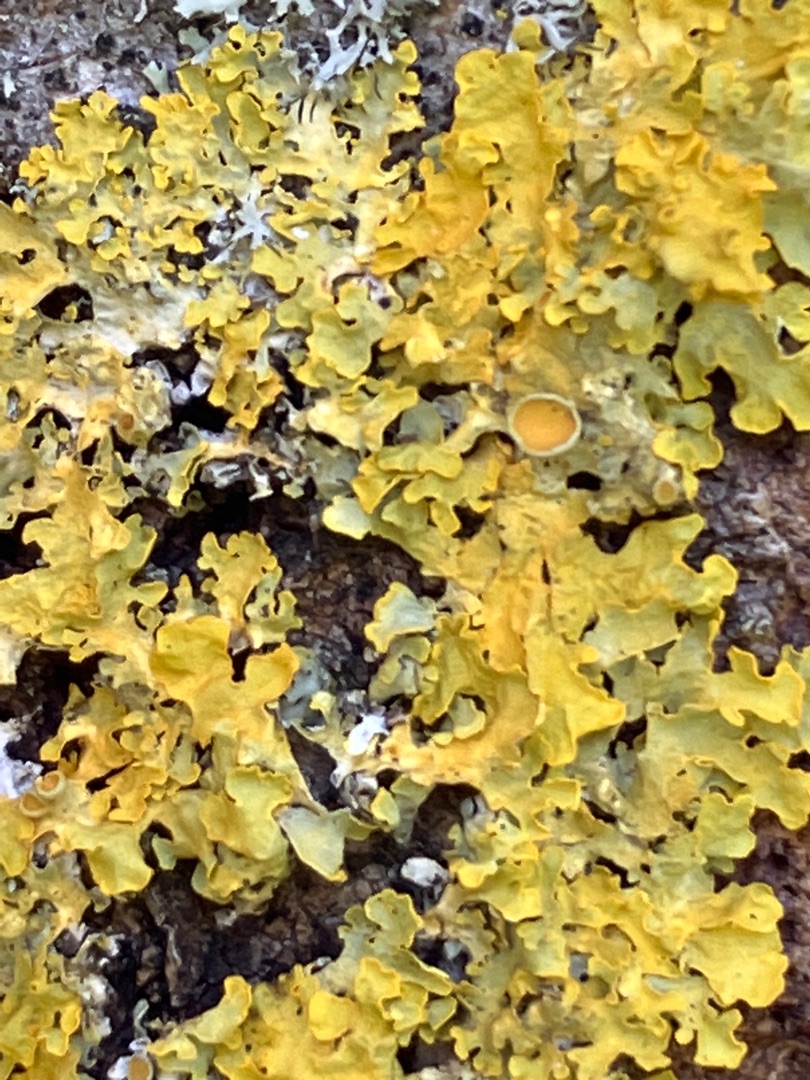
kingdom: Fungi
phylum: Ascomycota
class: Lecanoromycetes
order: Teloschistales
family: Teloschistaceae
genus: Xanthoria
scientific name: Xanthoria parietina
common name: Almindelig væggelav
